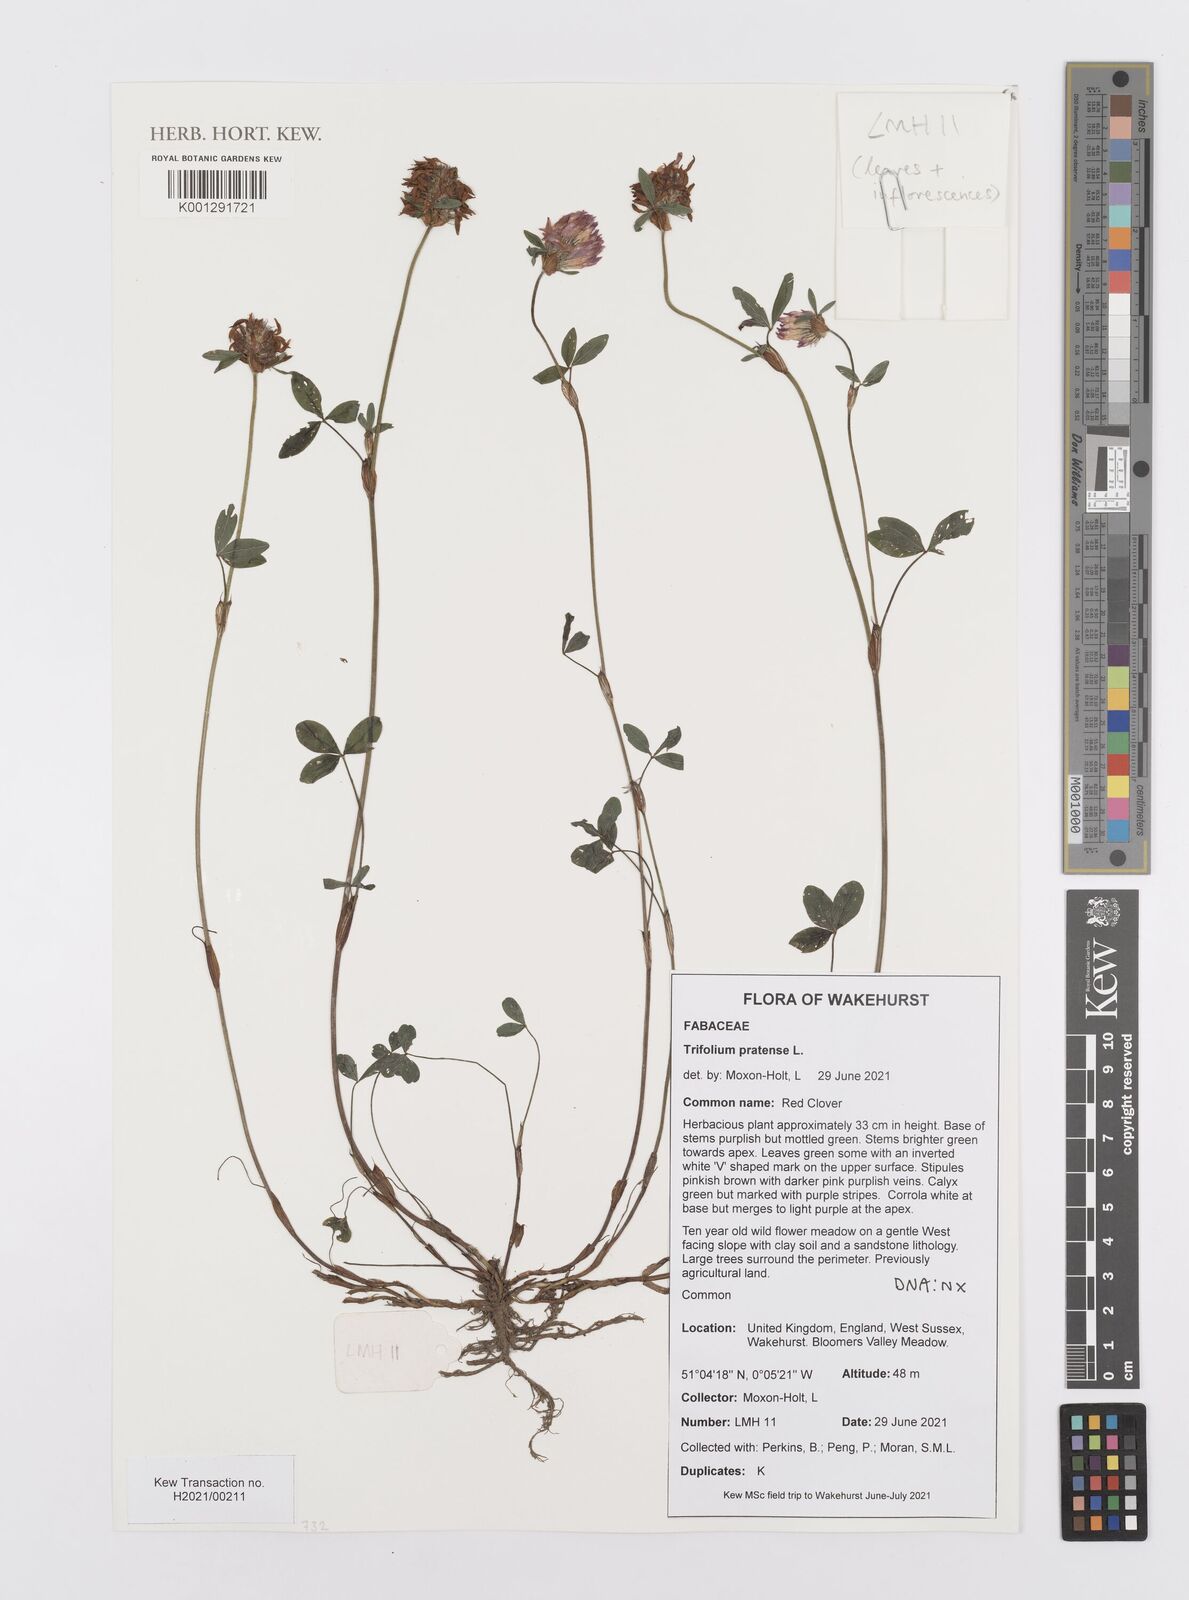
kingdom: Plantae
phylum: Tracheophyta
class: Magnoliopsida
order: Fabales
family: Fabaceae
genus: Trifolium
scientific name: Trifolium pratense
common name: Red clover
